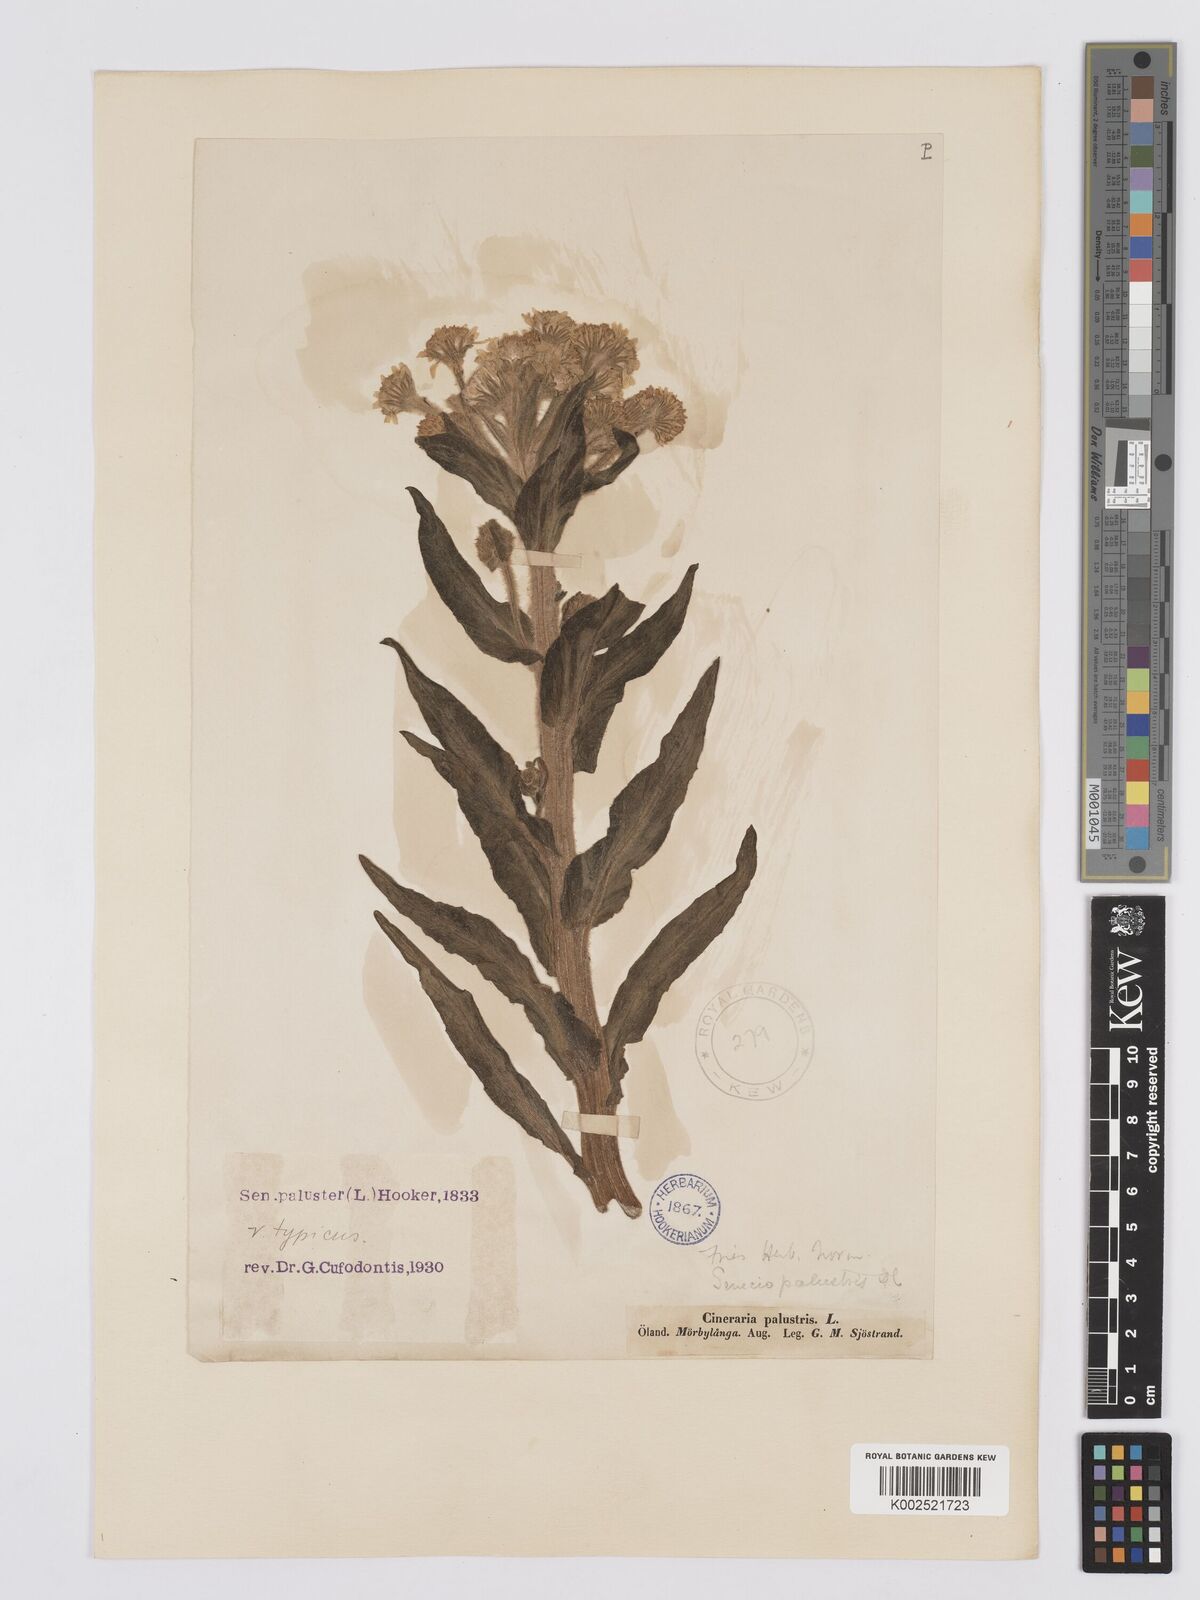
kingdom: Plantae
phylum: Tracheophyta
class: Magnoliopsida
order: Asterales
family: Asteraceae
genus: Tephroseris
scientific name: Tephroseris palustris
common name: Marsh fleawort
